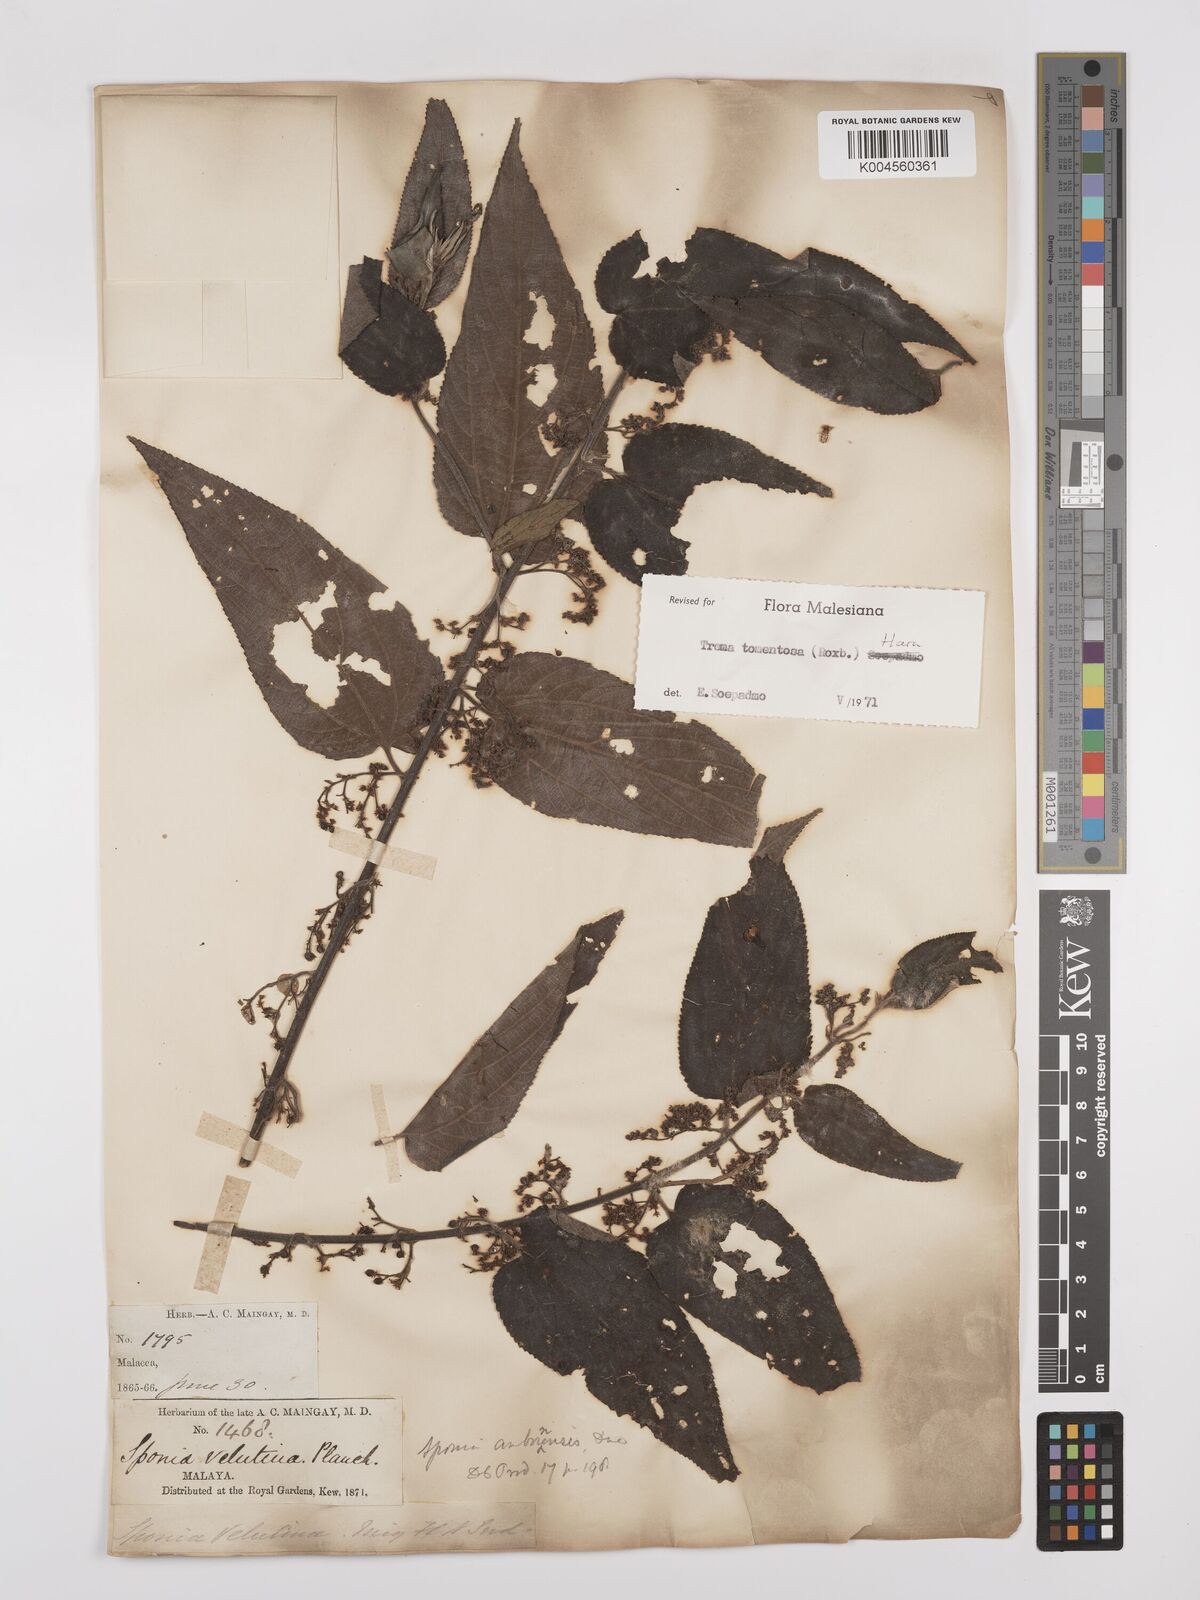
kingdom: Plantae
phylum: Tracheophyta
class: Magnoliopsida
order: Rosales
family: Cannabaceae
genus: Trema
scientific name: Trema tomentosum
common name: Peach-leaf-poisonbush
